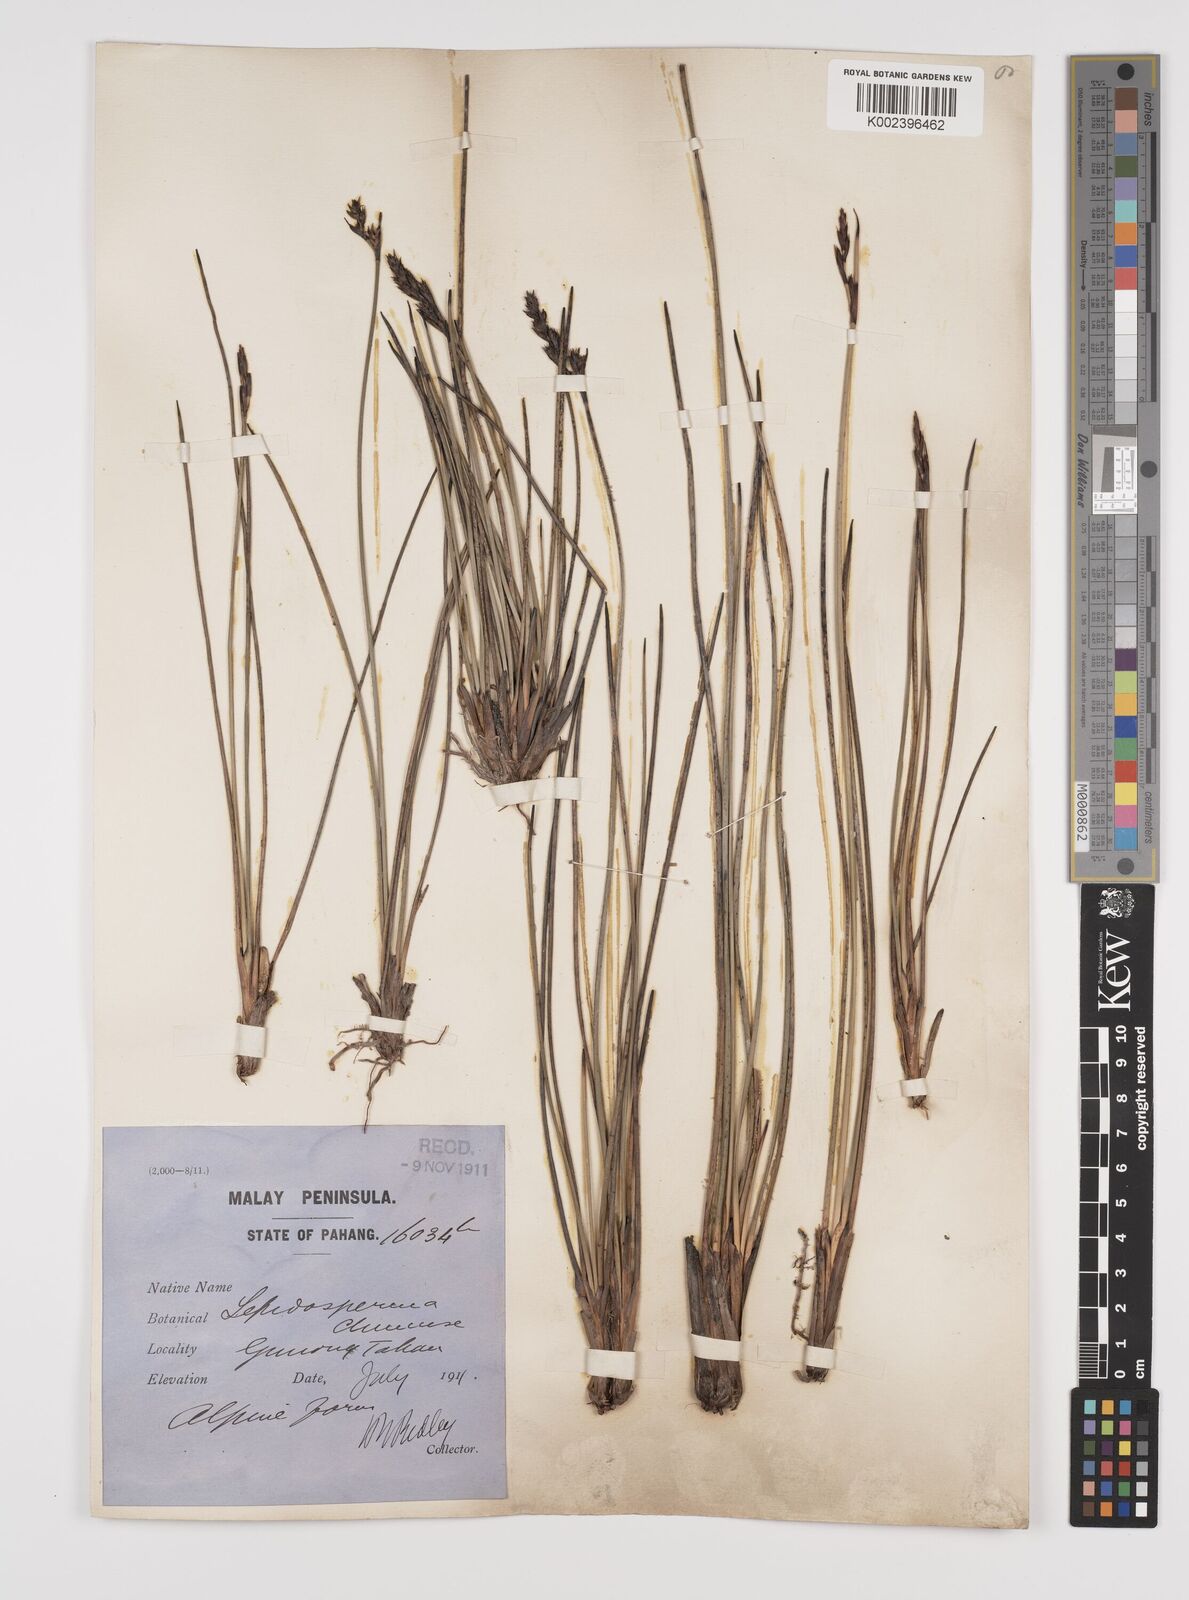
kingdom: Plantae
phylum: Tracheophyta
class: Liliopsida
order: Poales
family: Cyperaceae
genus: Lepidosperma
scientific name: Lepidosperma chinense
